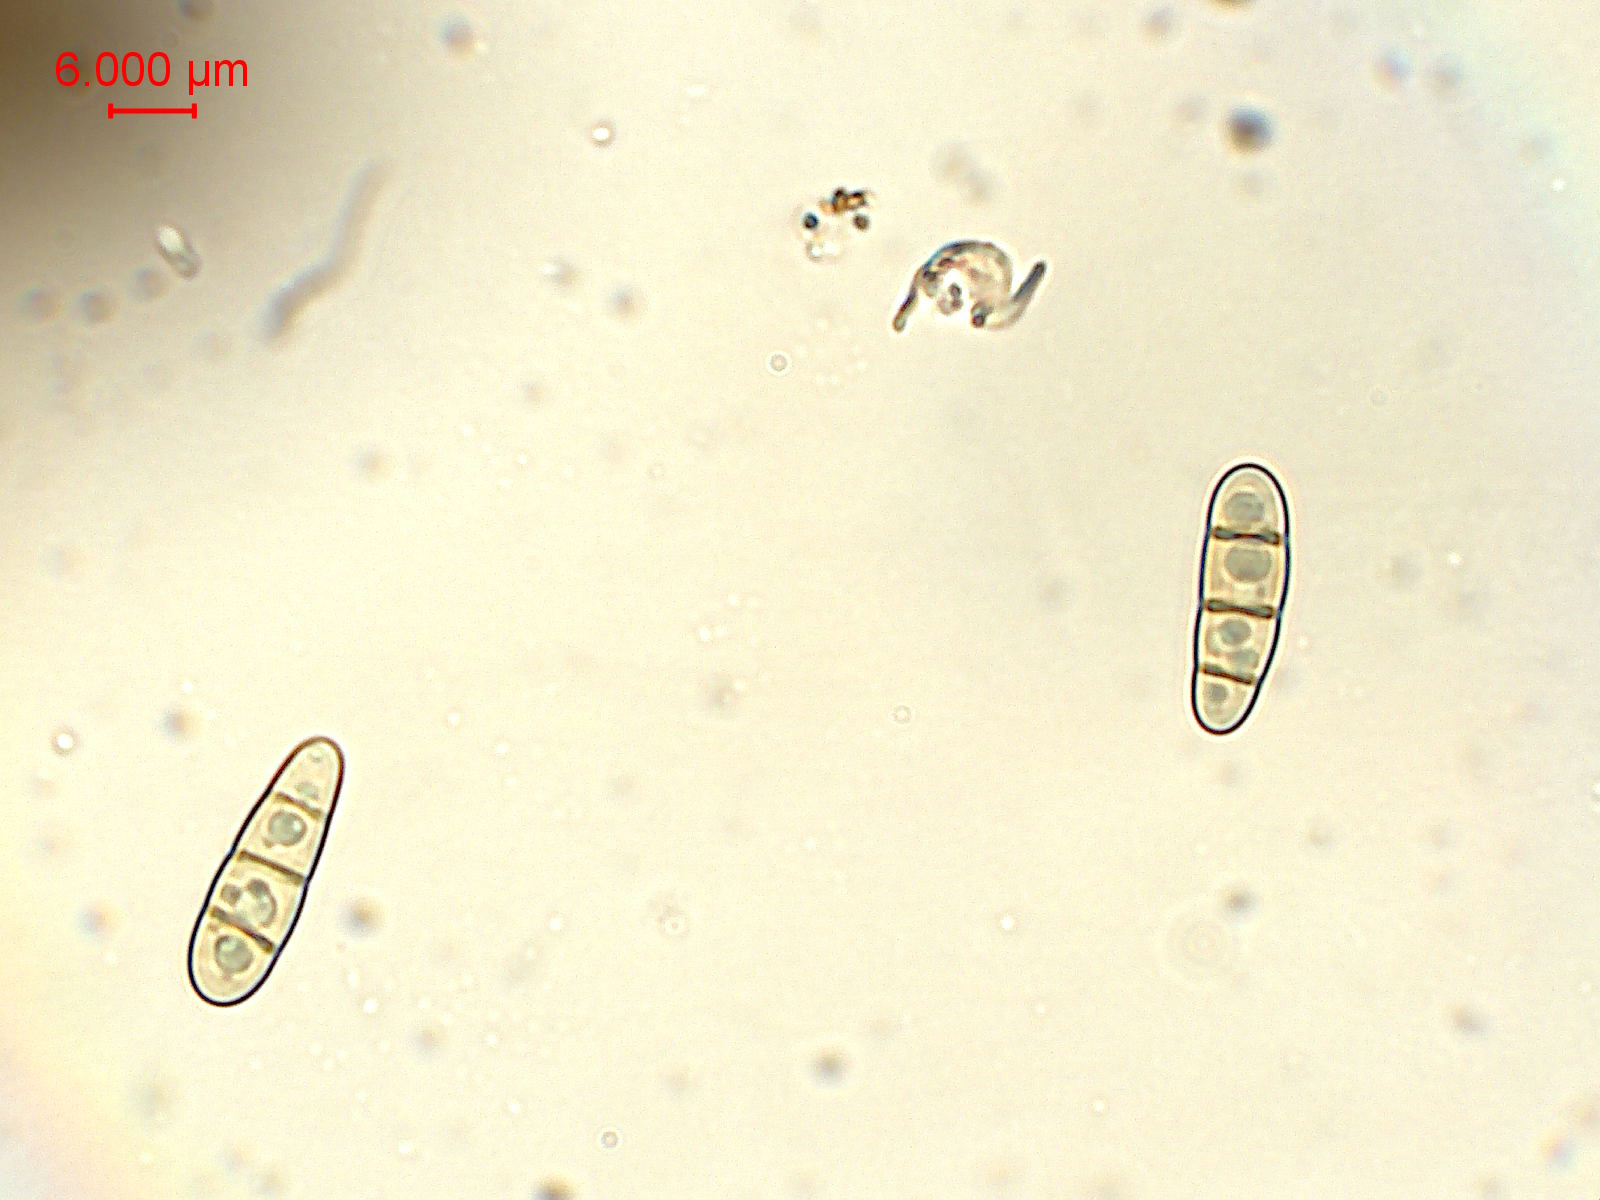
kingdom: Fungi
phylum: Ascomycota
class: Dothideomycetes
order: Hysteriales
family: Hysteriaceae
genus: Hysterium
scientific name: Hysterium acuminatum
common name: almindelig kulmund
